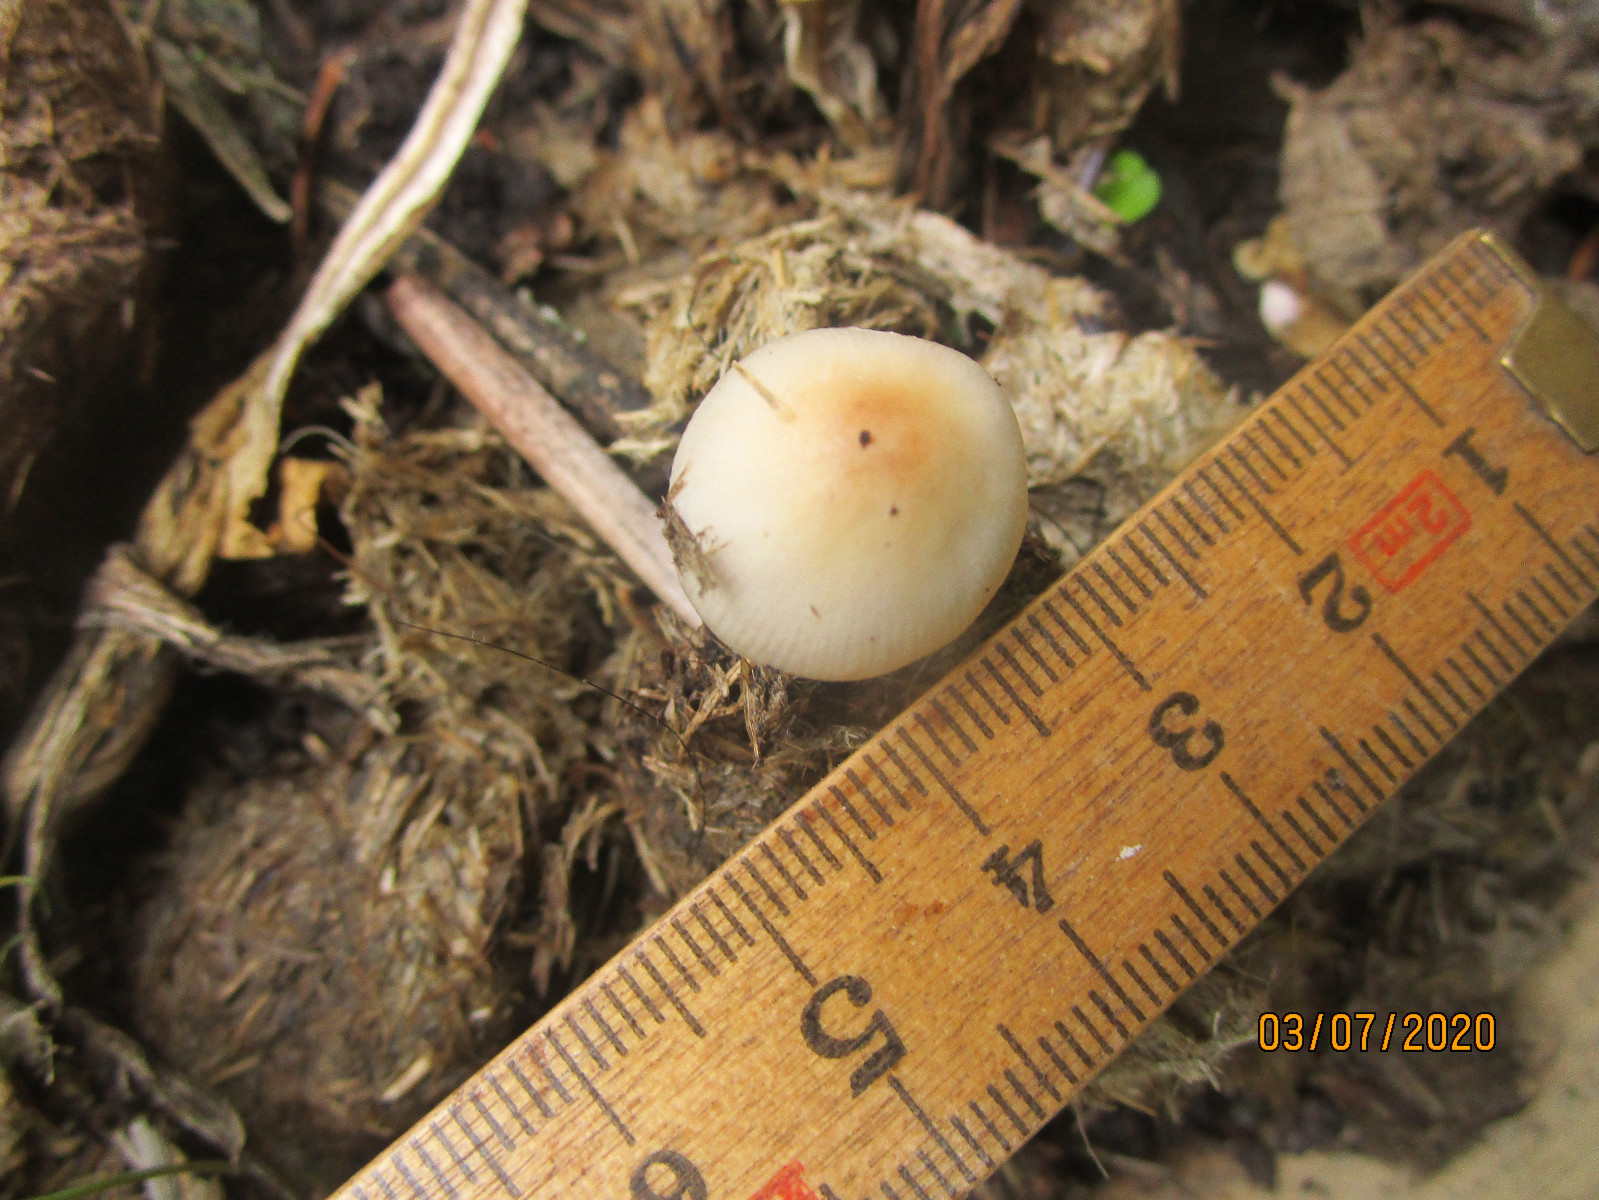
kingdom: Fungi
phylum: Basidiomycota
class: Agaricomycetes
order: Agaricales
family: Bolbitiaceae
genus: Bolbitius
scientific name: Bolbitius coprophilus
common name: rosa gulhat
